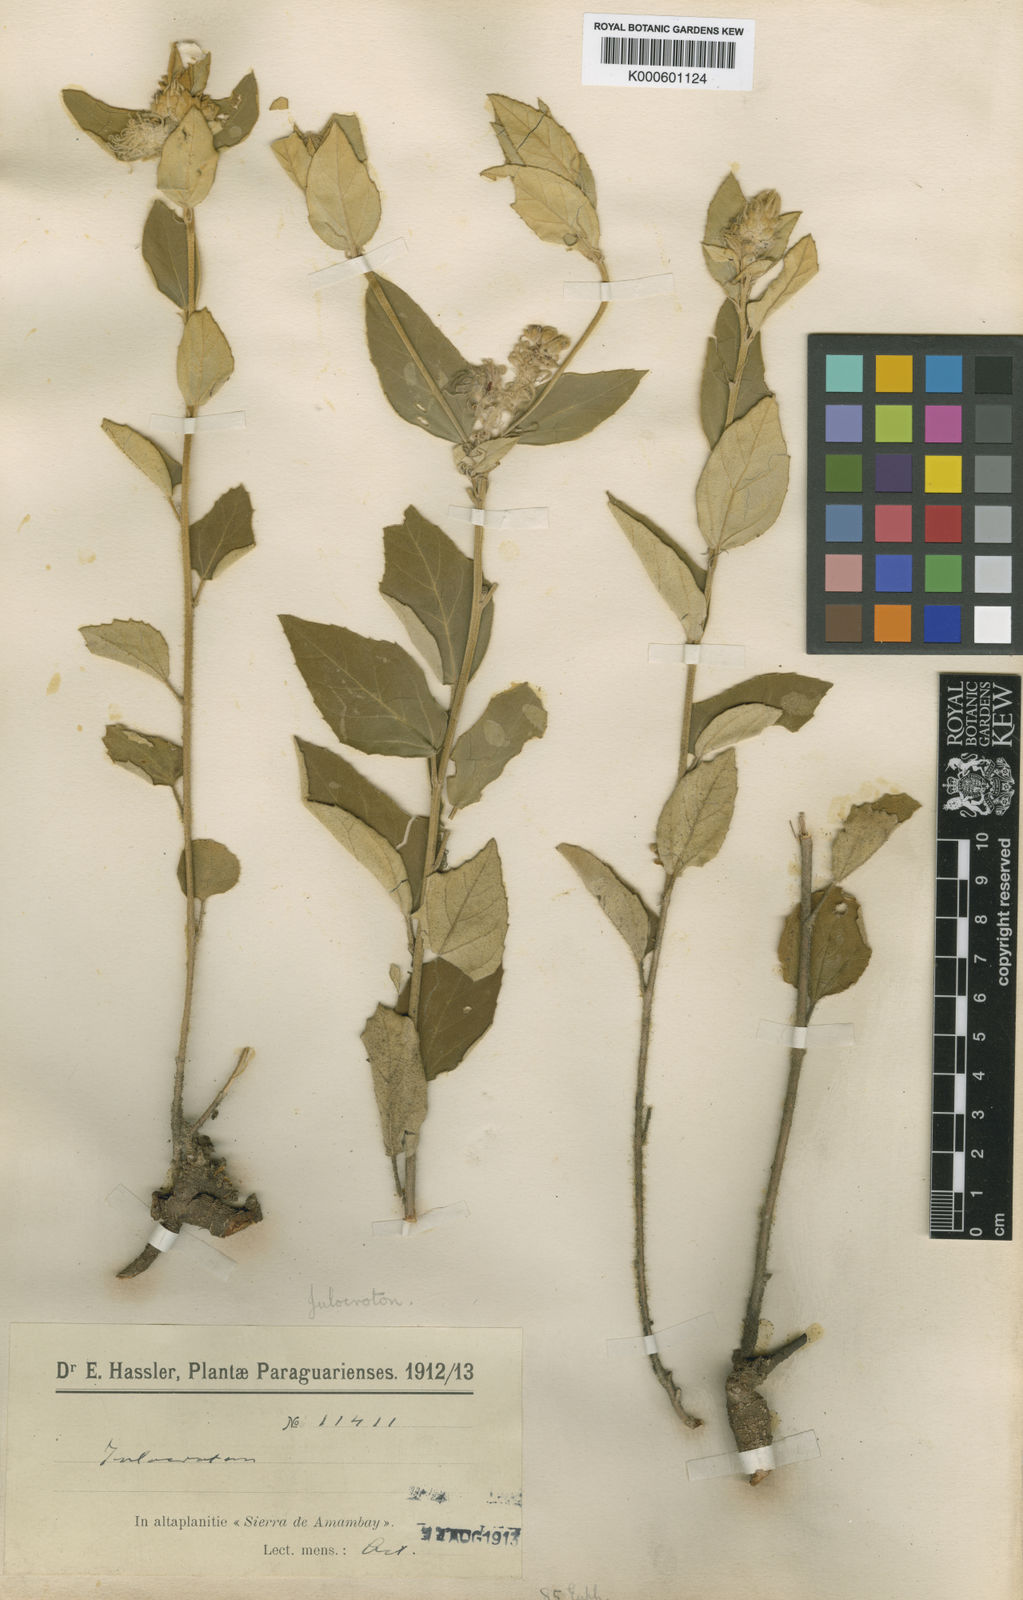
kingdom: Plantae
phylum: Tracheophyta
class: Magnoliopsida
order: Malpighiales
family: Euphorbiaceae
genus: Croton
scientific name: Croton pyrosoma
